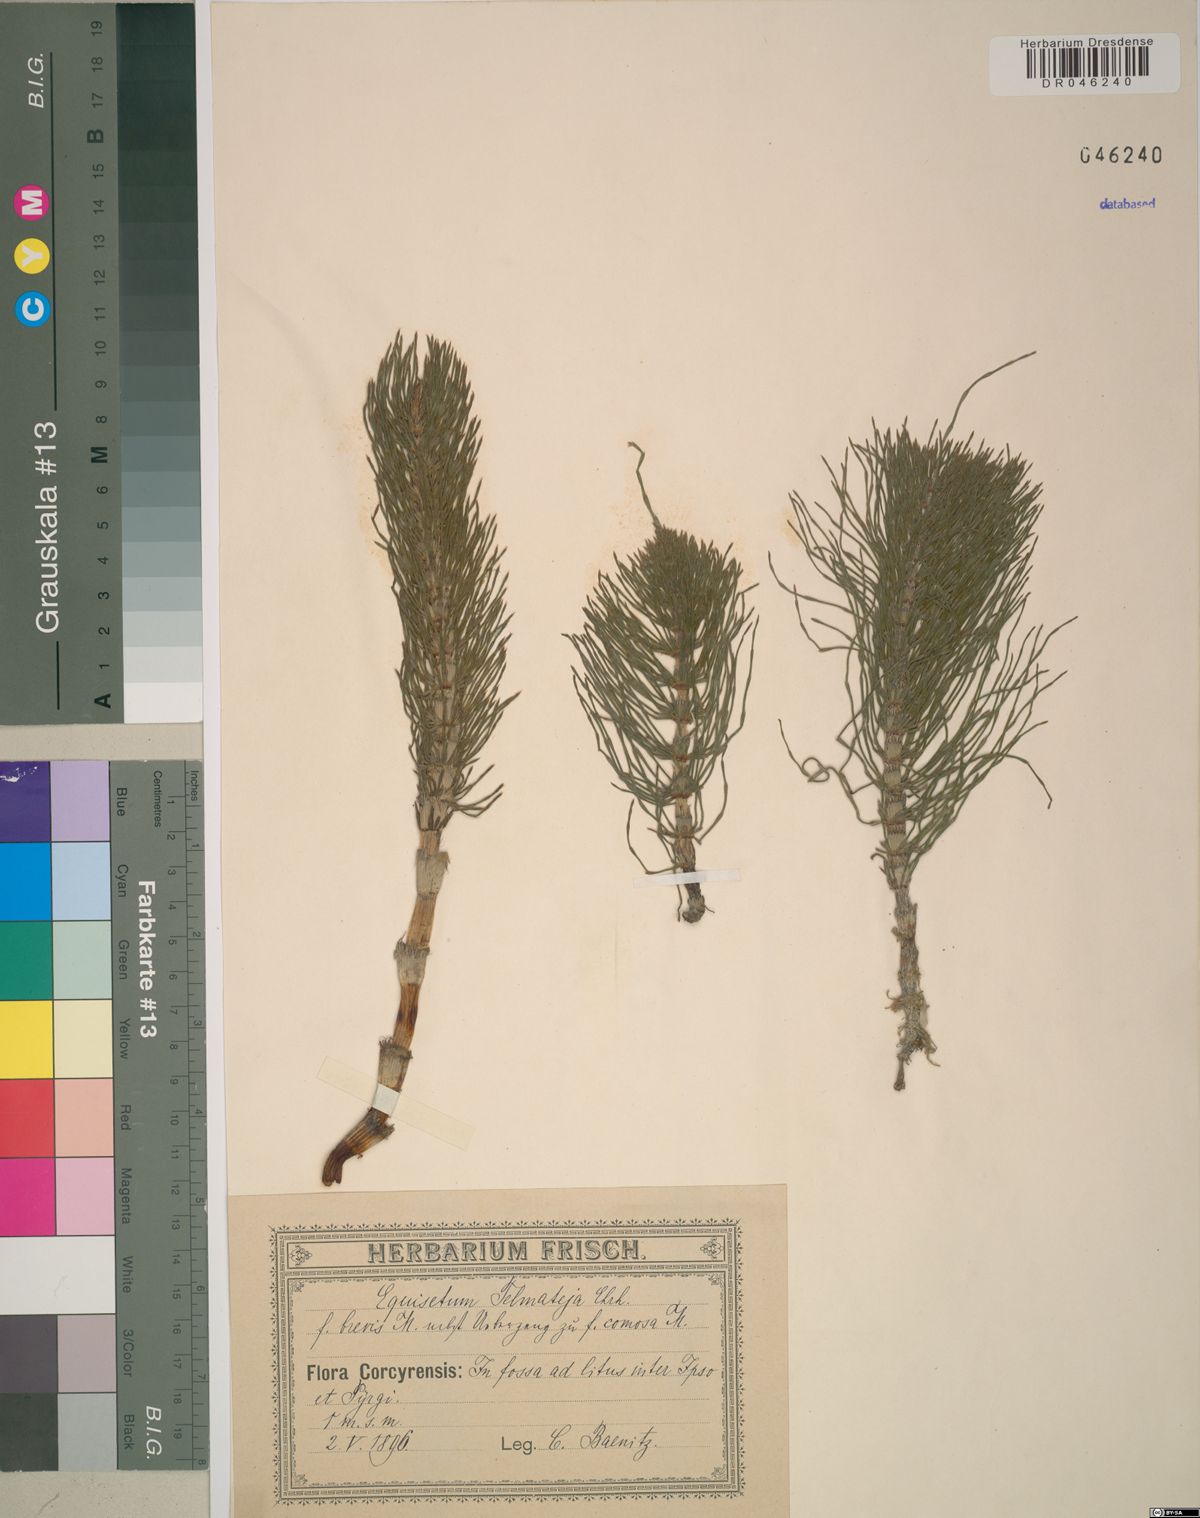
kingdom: Plantae
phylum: Tracheophyta
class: Polypodiopsida
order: Equisetales
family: Equisetaceae
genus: Equisetum
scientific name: Equisetum telmateia
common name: Great horsetail
